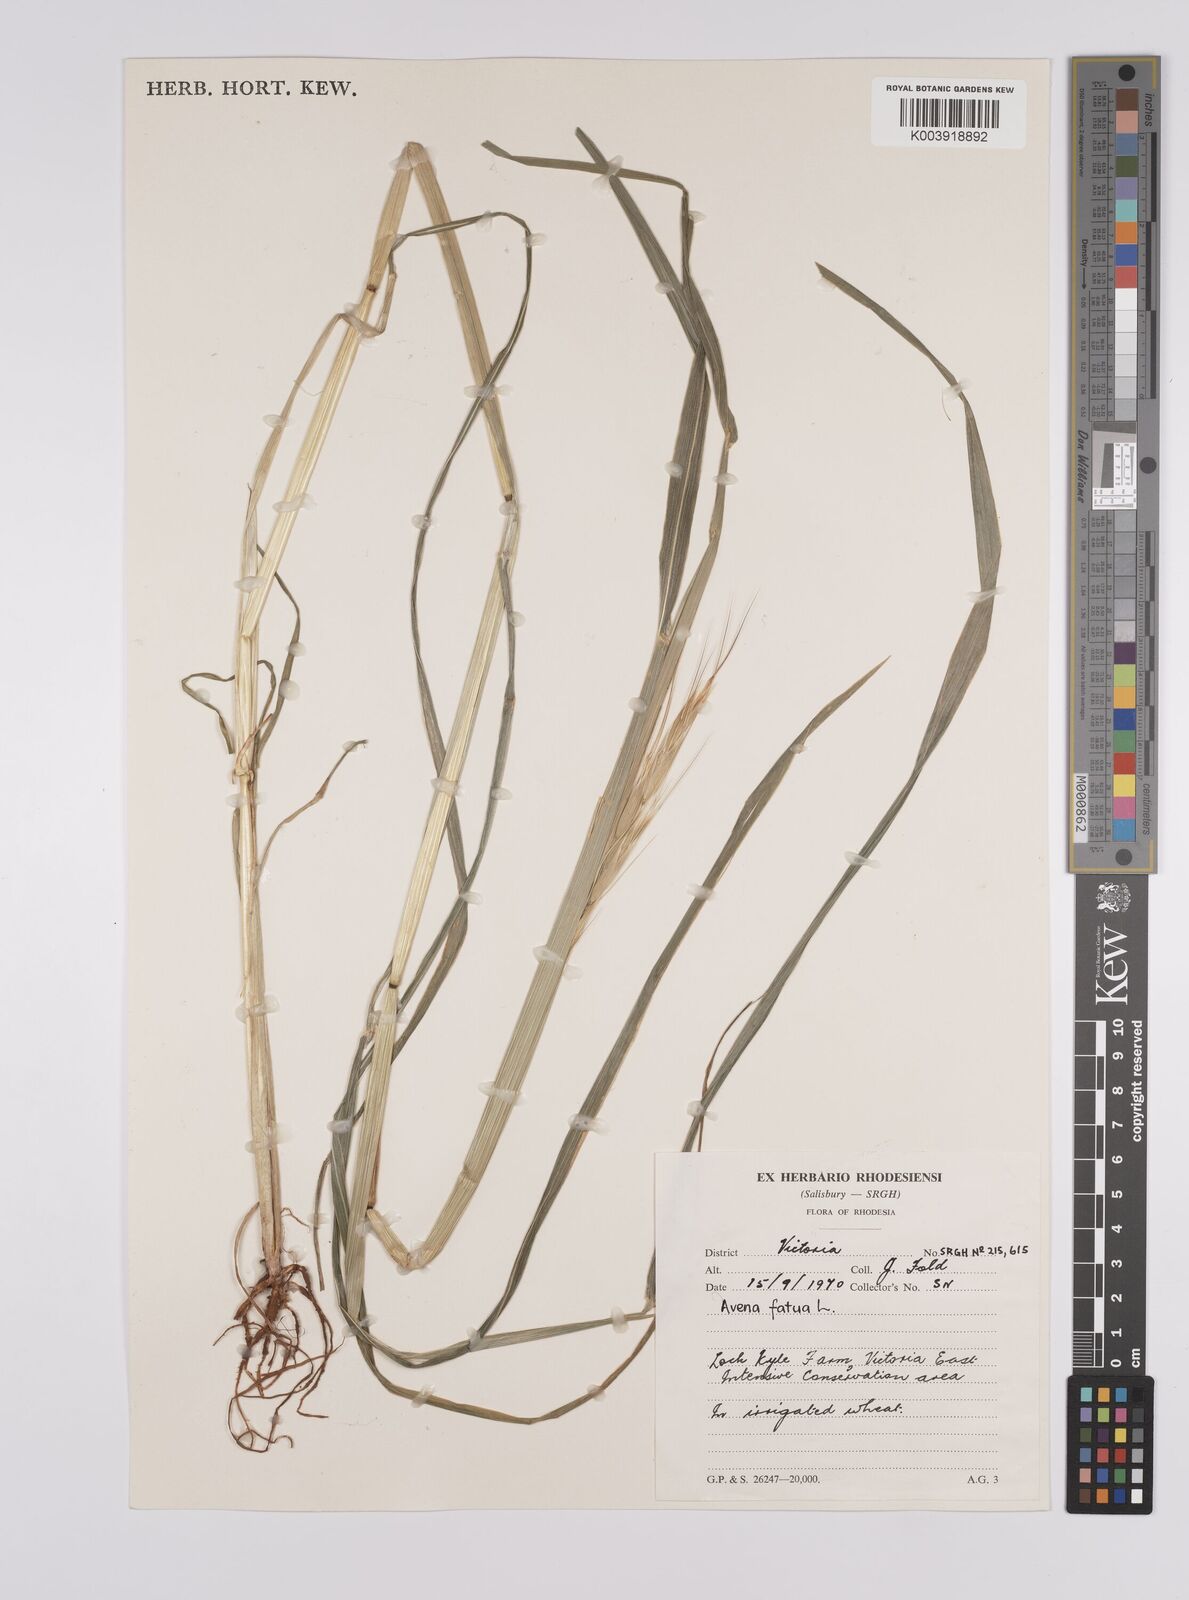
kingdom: Plantae
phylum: Tracheophyta
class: Liliopsida
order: Poales
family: Poaceae
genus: Avena
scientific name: Avena fatua
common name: Wild oat
